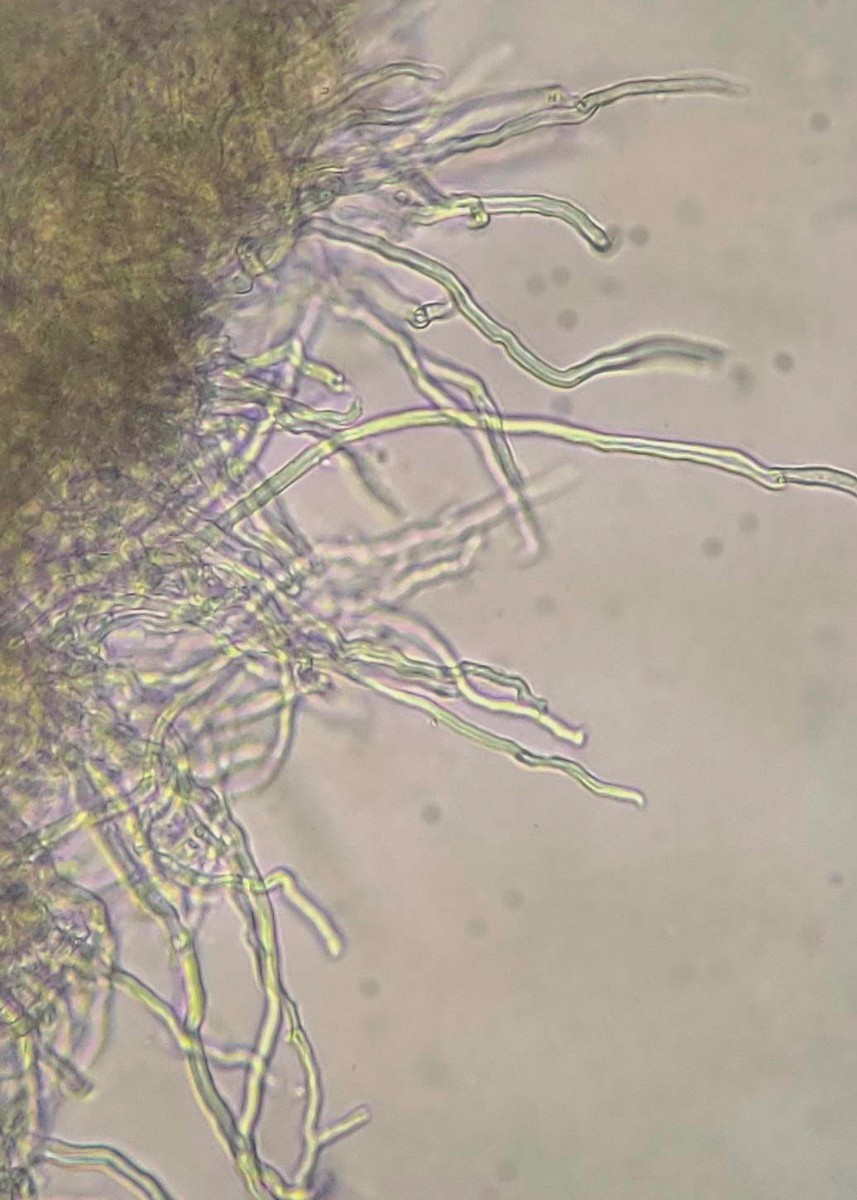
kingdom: Fungi
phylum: Basidiomycota
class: Agaricomycetes
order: Polyporales
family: Steccherinaceae
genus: Antella
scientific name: Antella niemelaei
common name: grovporet elastikporesvamp
